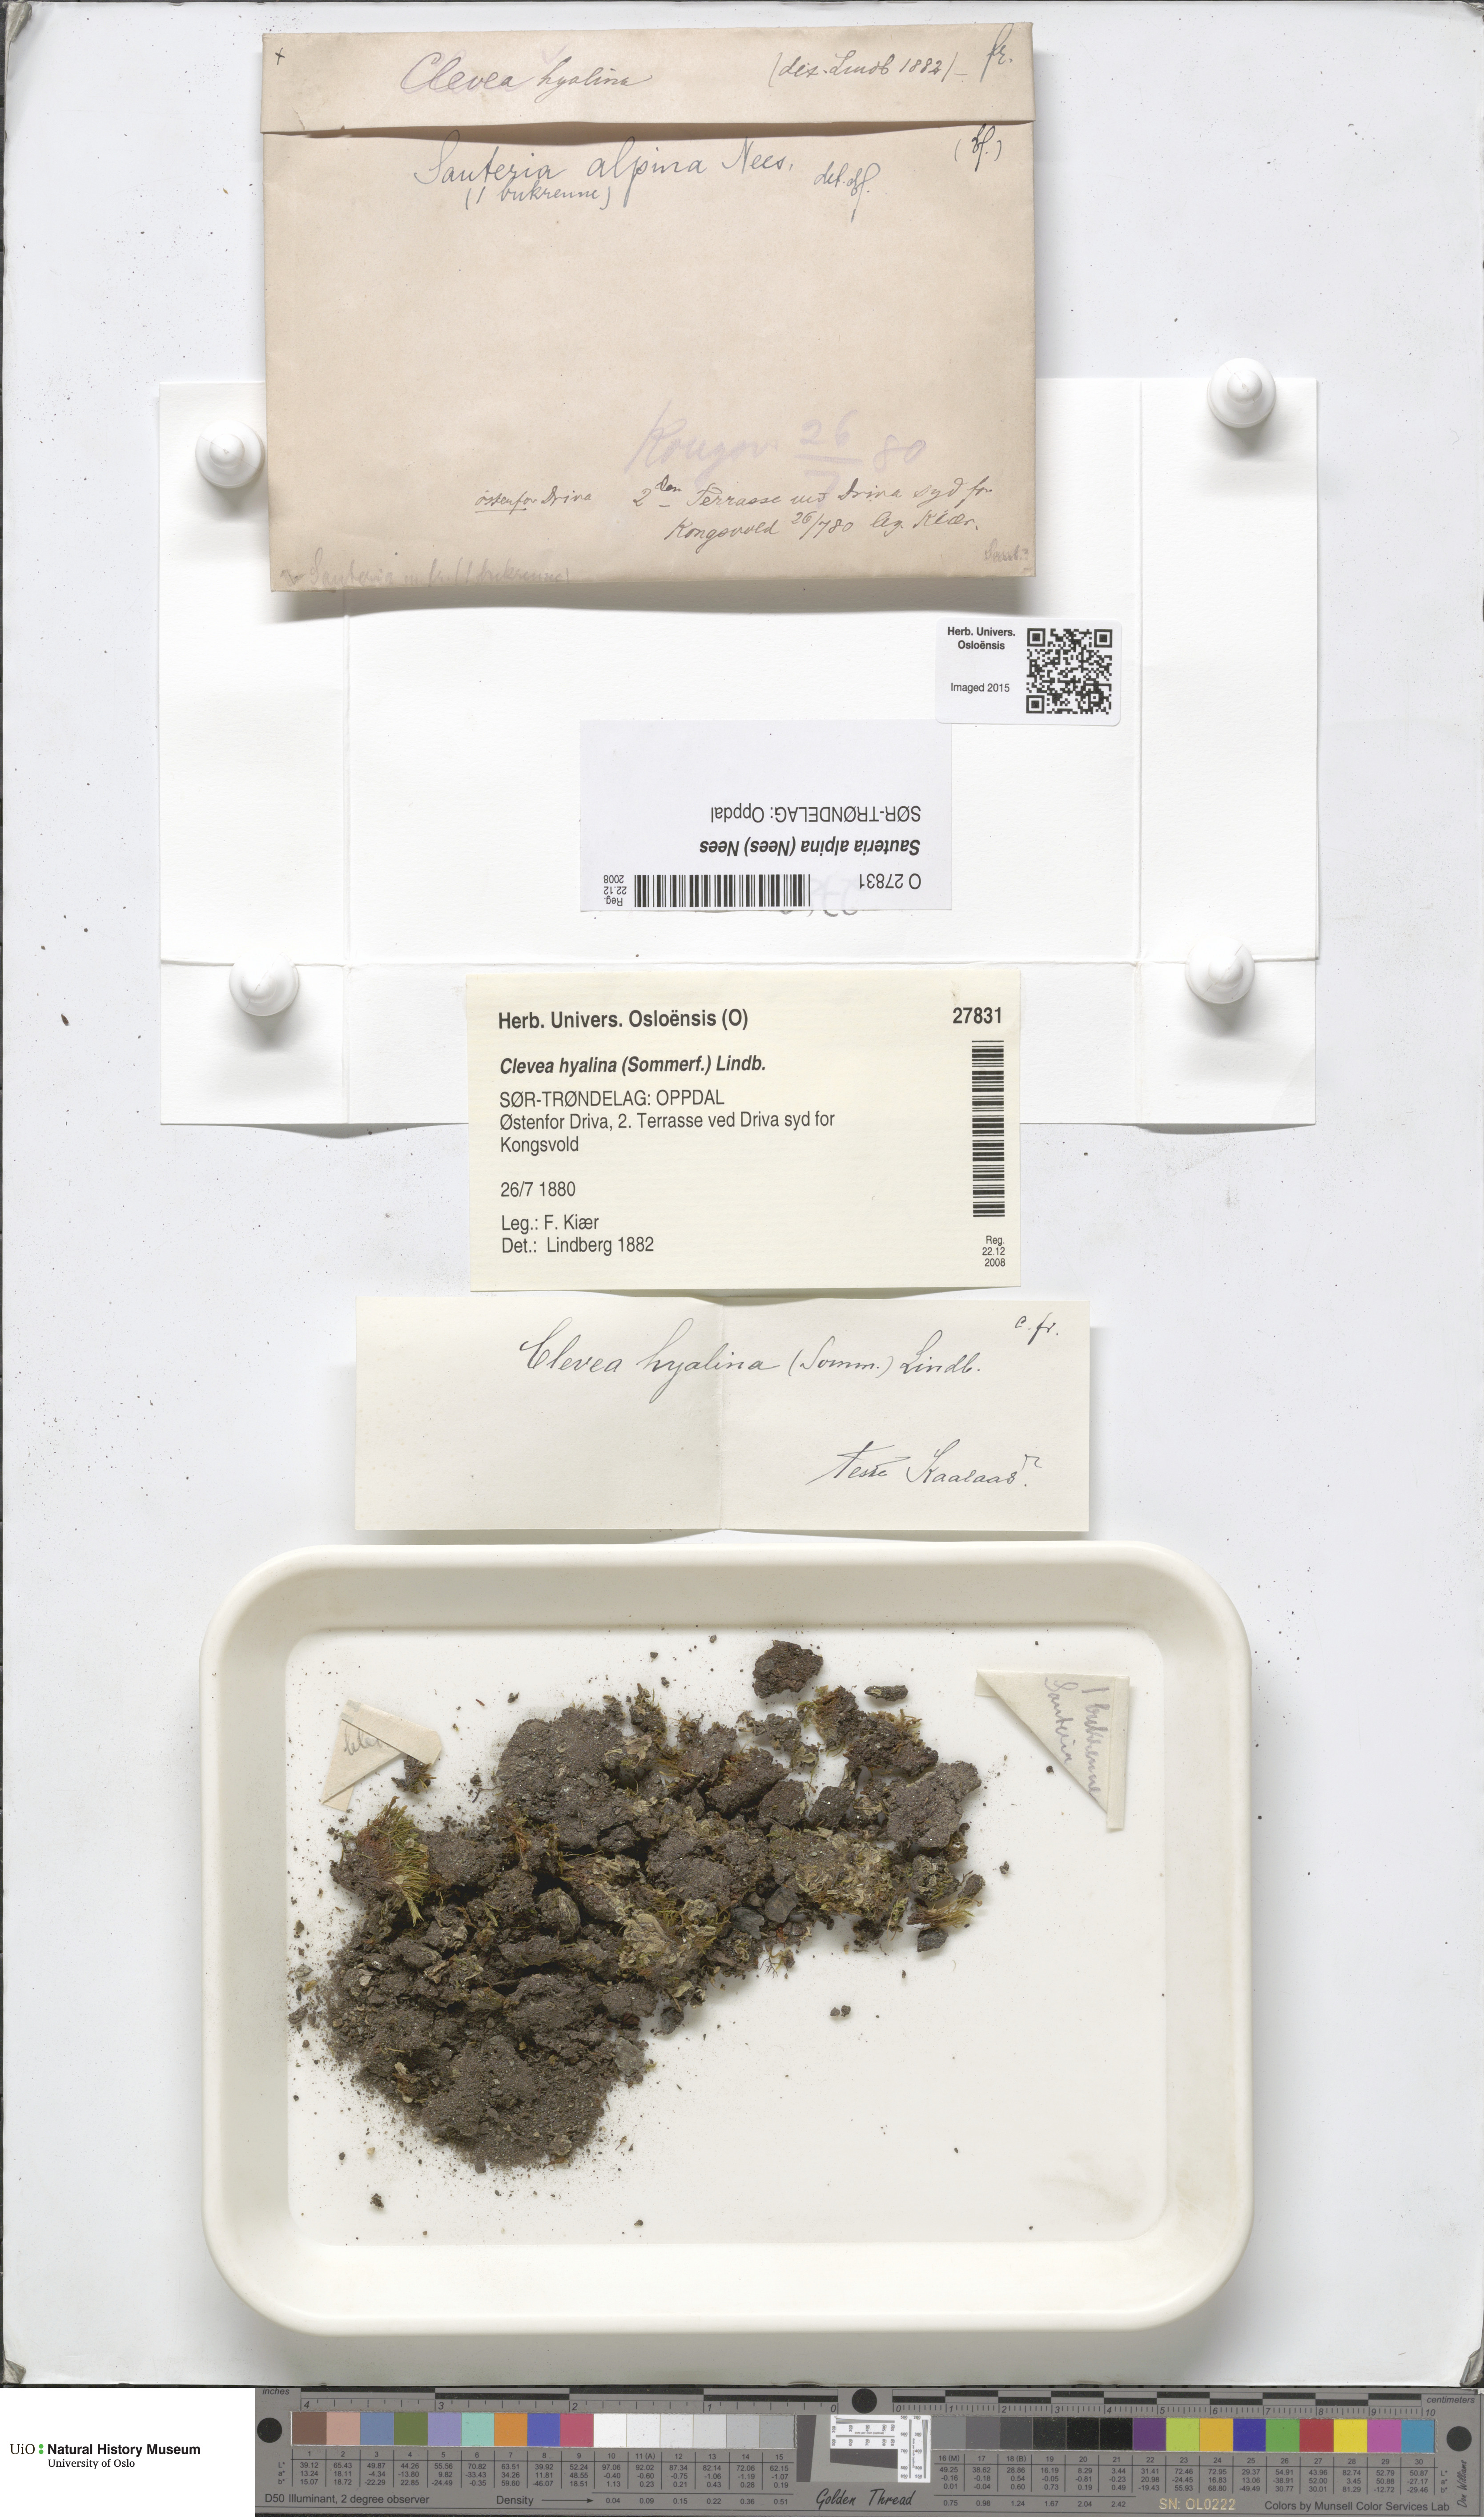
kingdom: Plantae
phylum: Marchantiophyta
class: Marchantiopsida
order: Marchantiales
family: Cleveaceae
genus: Sauteria
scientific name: Sauteria alpina
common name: Snow lungwort
